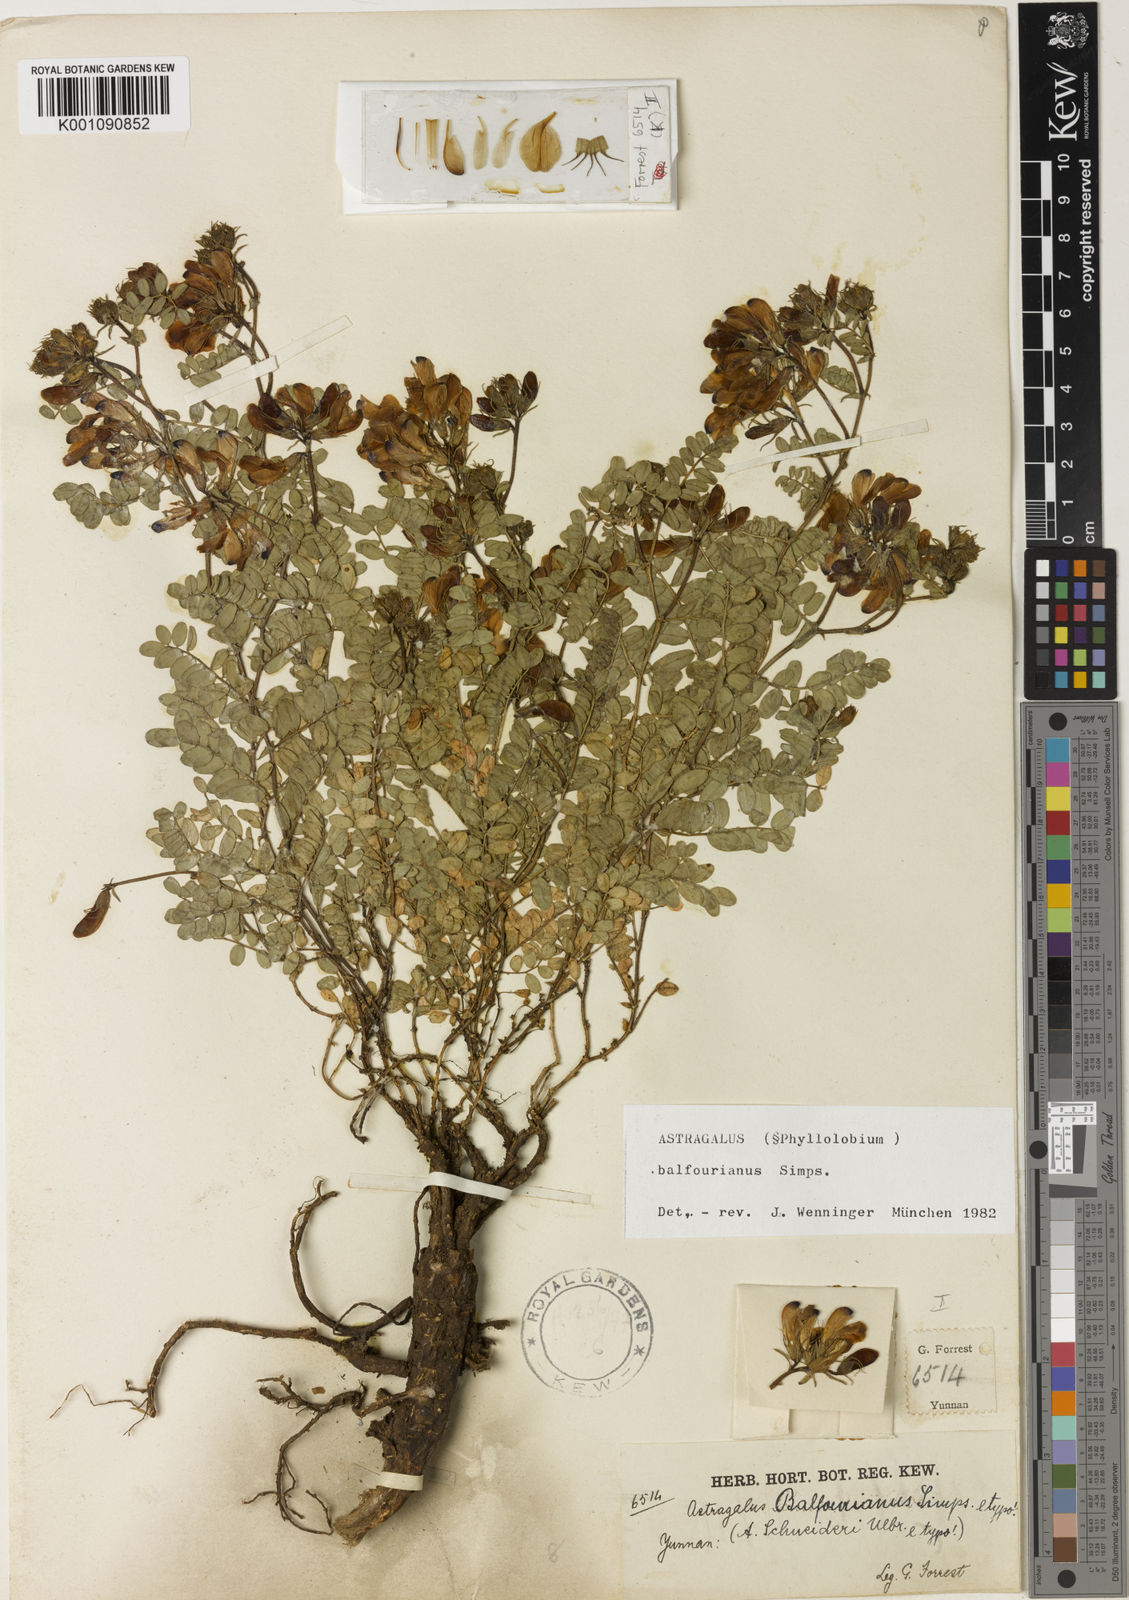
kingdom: Plantae
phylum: Tracheophyta
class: Magnoliopsida
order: Fabales
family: Fabaceae
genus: Astragalus
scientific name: Astragalus
